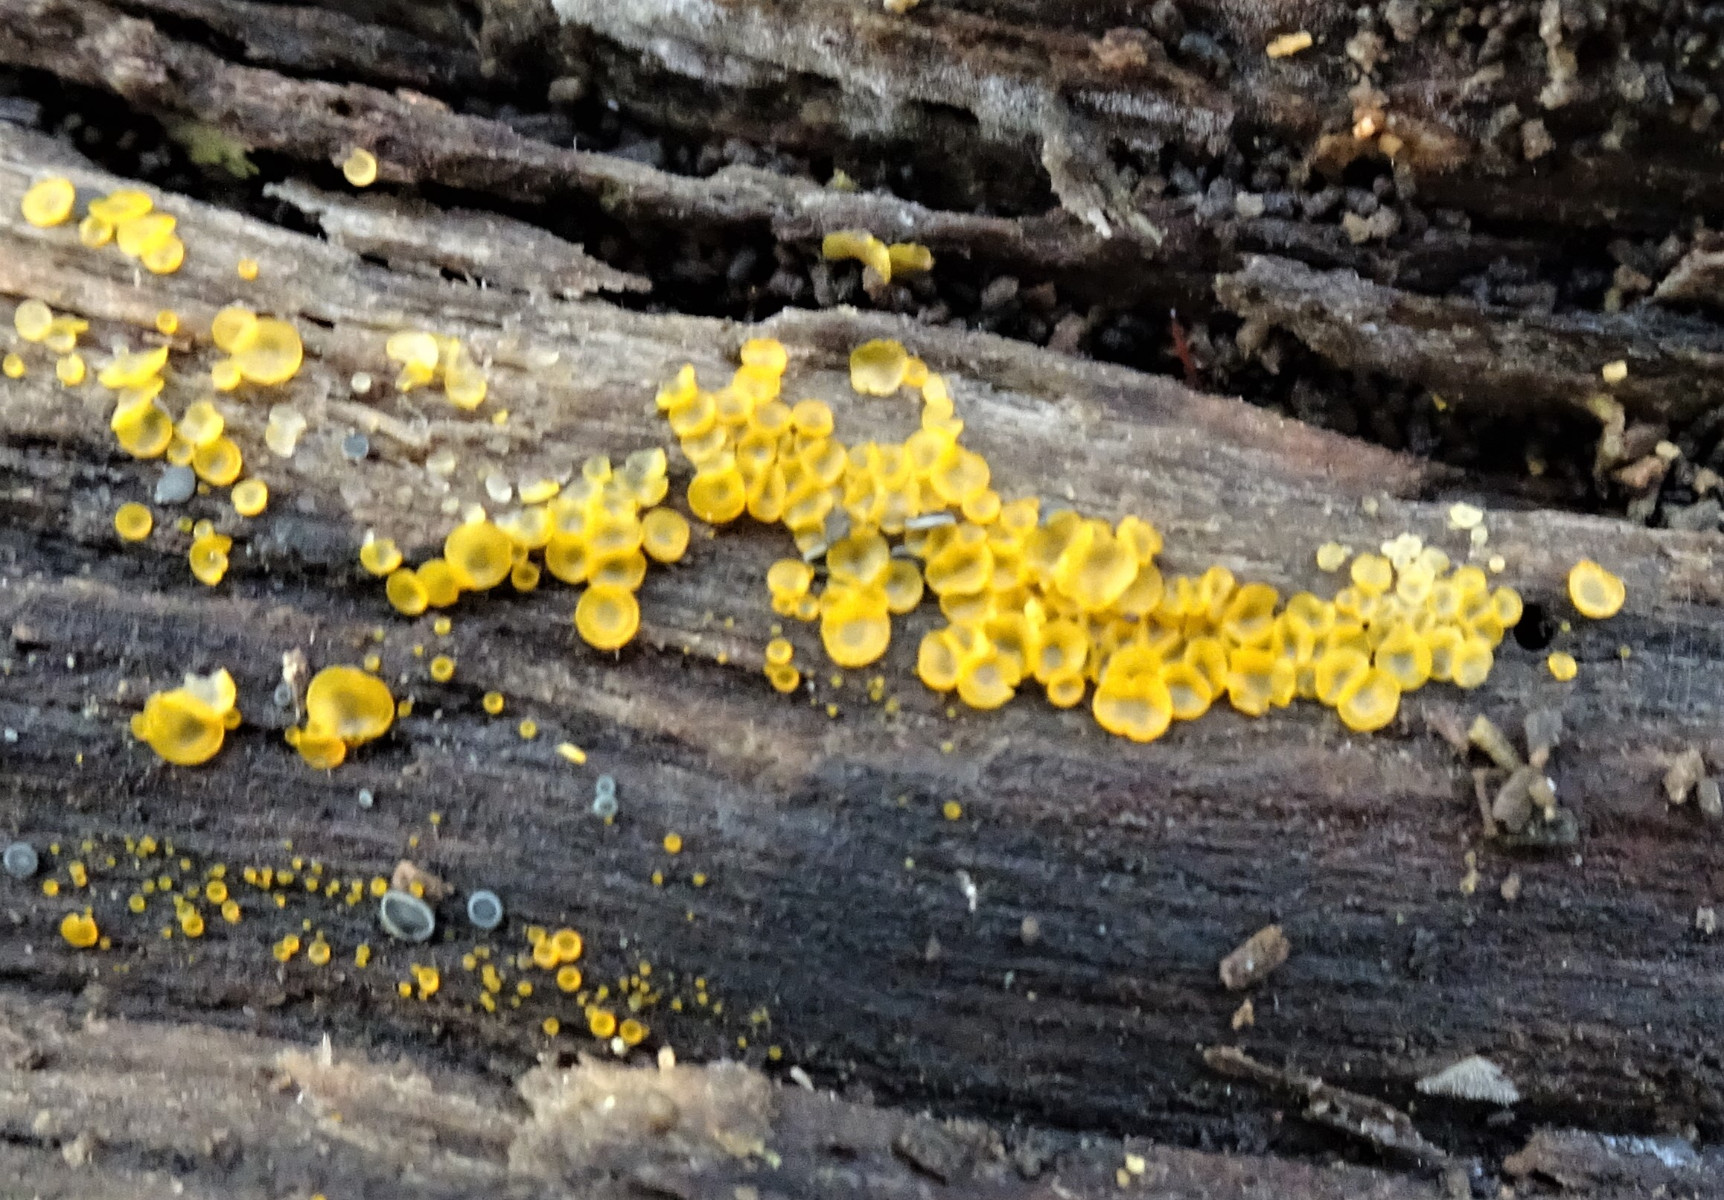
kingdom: Fungi
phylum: Ascomycota
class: Orbiliomycetes
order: Orbiliales
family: Orbiliaceae
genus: Orbilia
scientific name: Orbilia xanthostigma
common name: krumsporet voksskive
